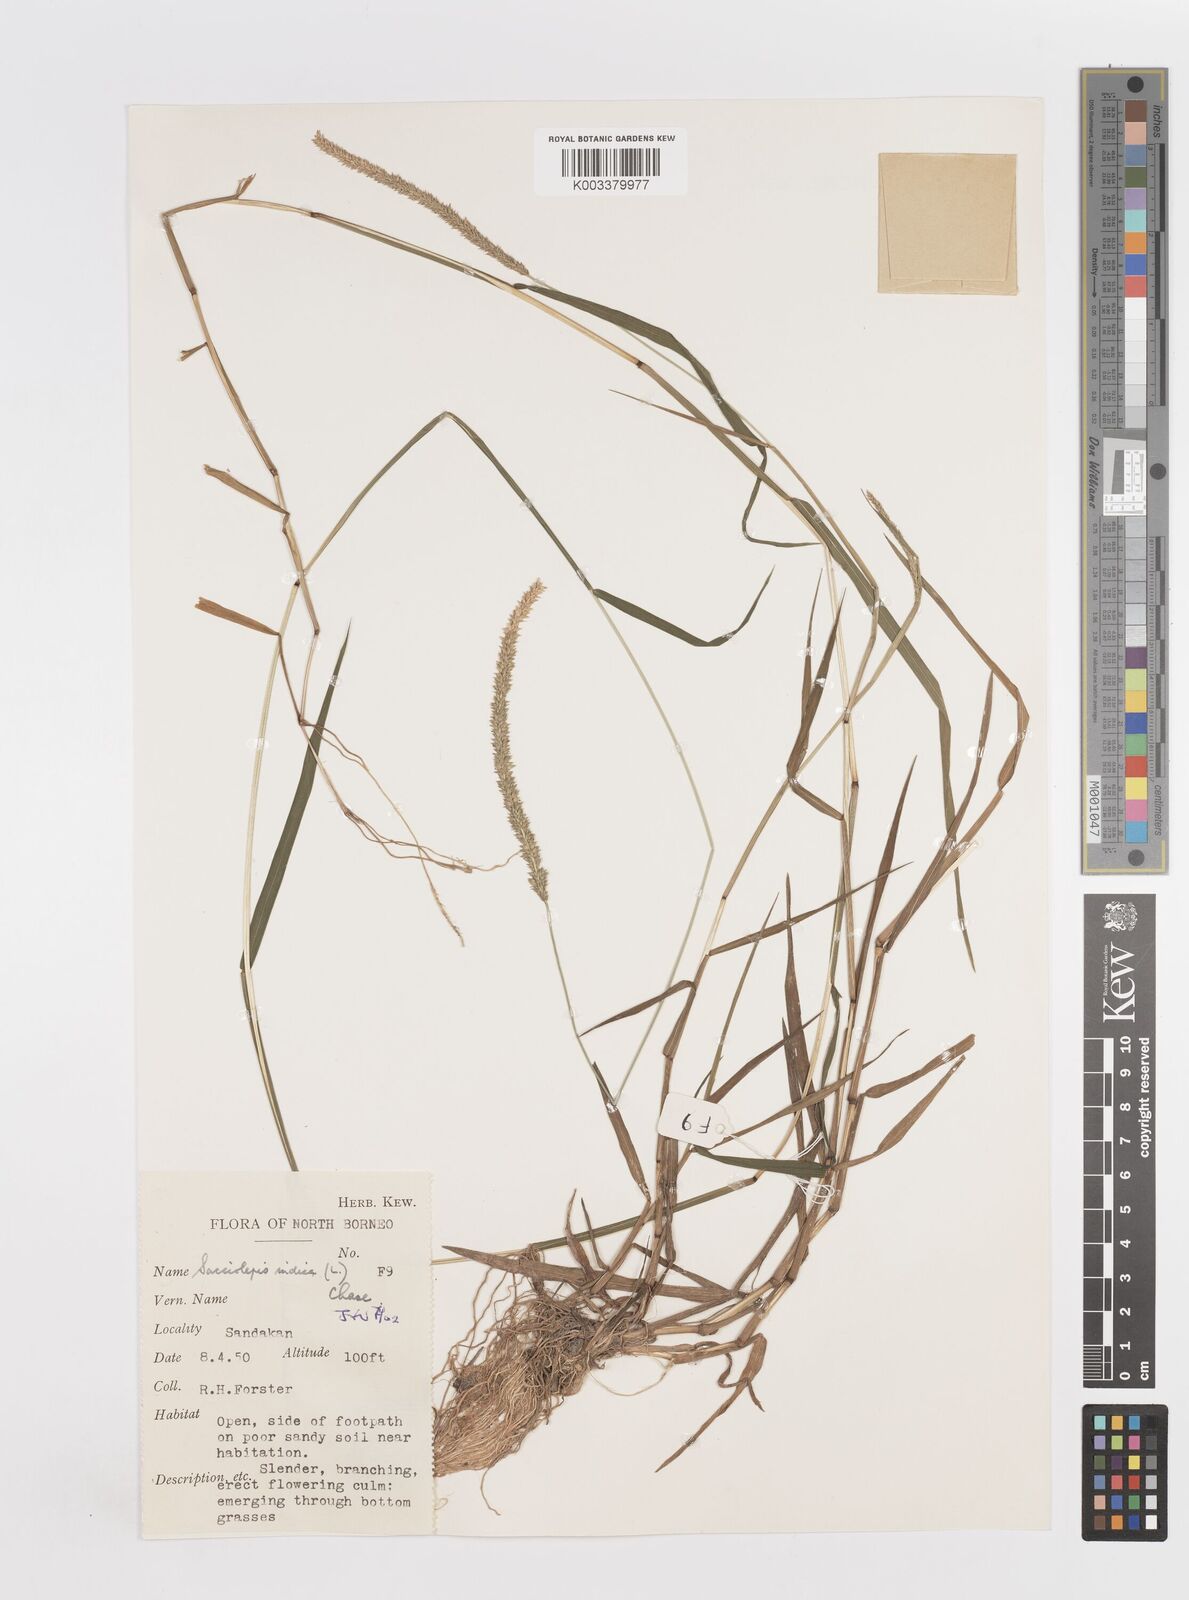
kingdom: Plantae
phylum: Tracheophyta
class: Liliopsida
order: Poales
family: Poaceae
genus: Sacciolepis
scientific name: Sacciolepis indica
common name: Glenwoodgrass
